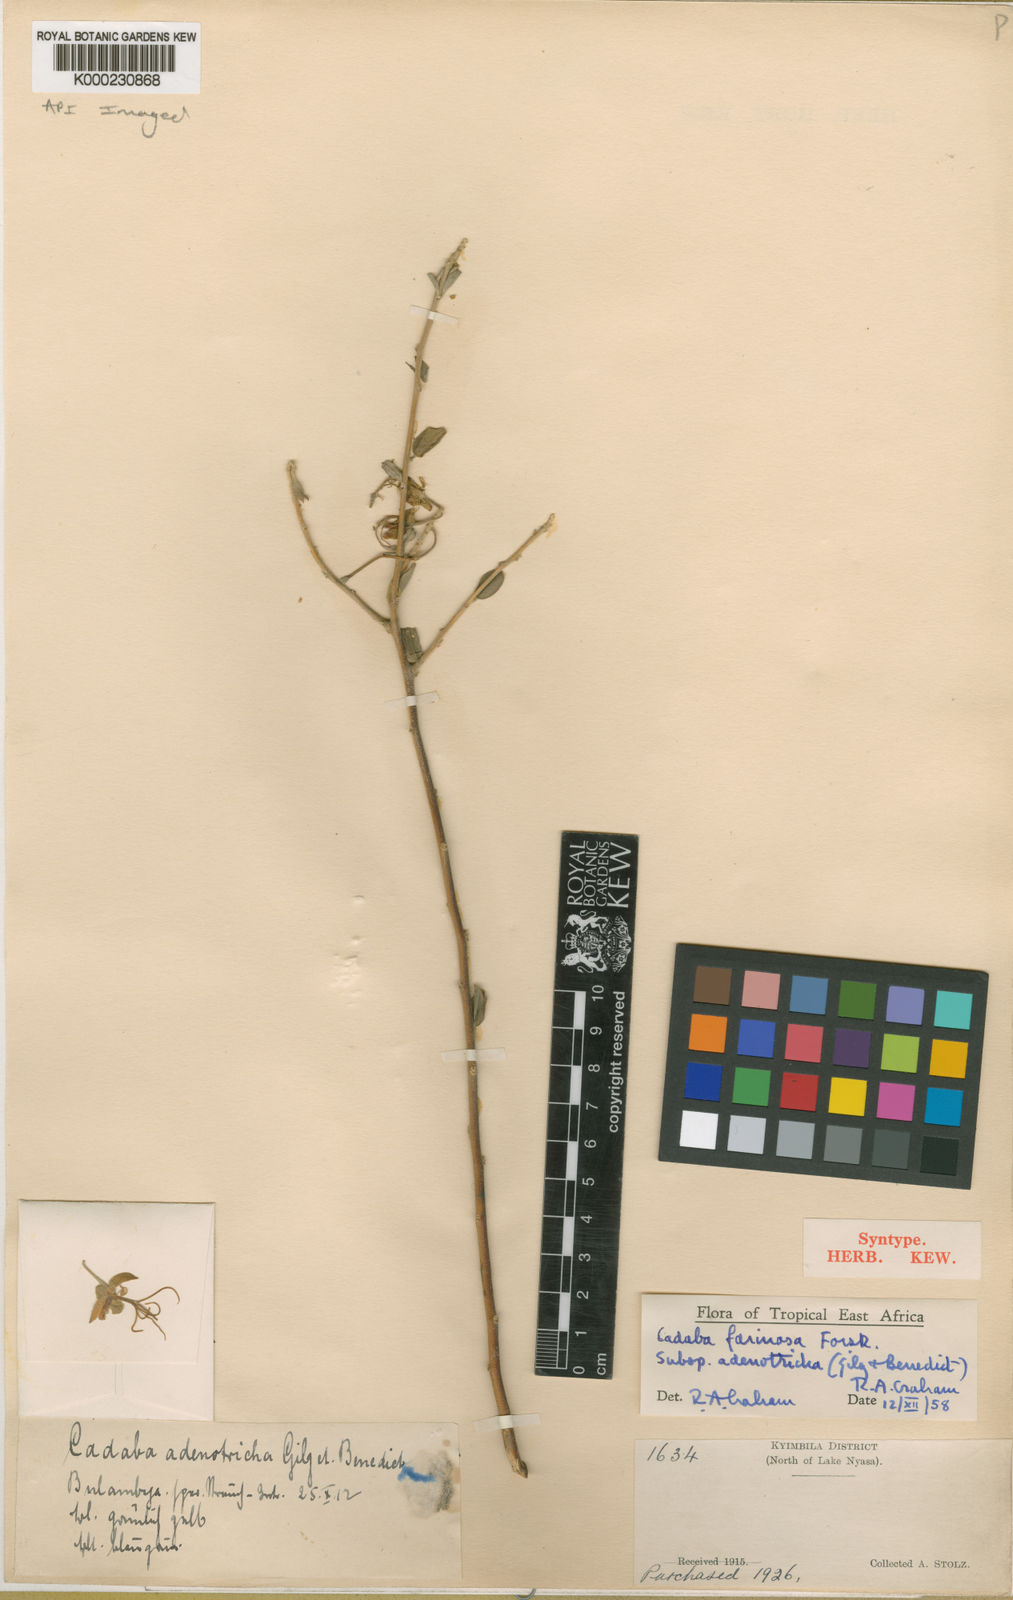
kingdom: Plantae
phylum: Tracheophyta
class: Magnoliopsida
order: Brassicales
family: Capparaceae
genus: Cadaba
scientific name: Cadaba farinosa
